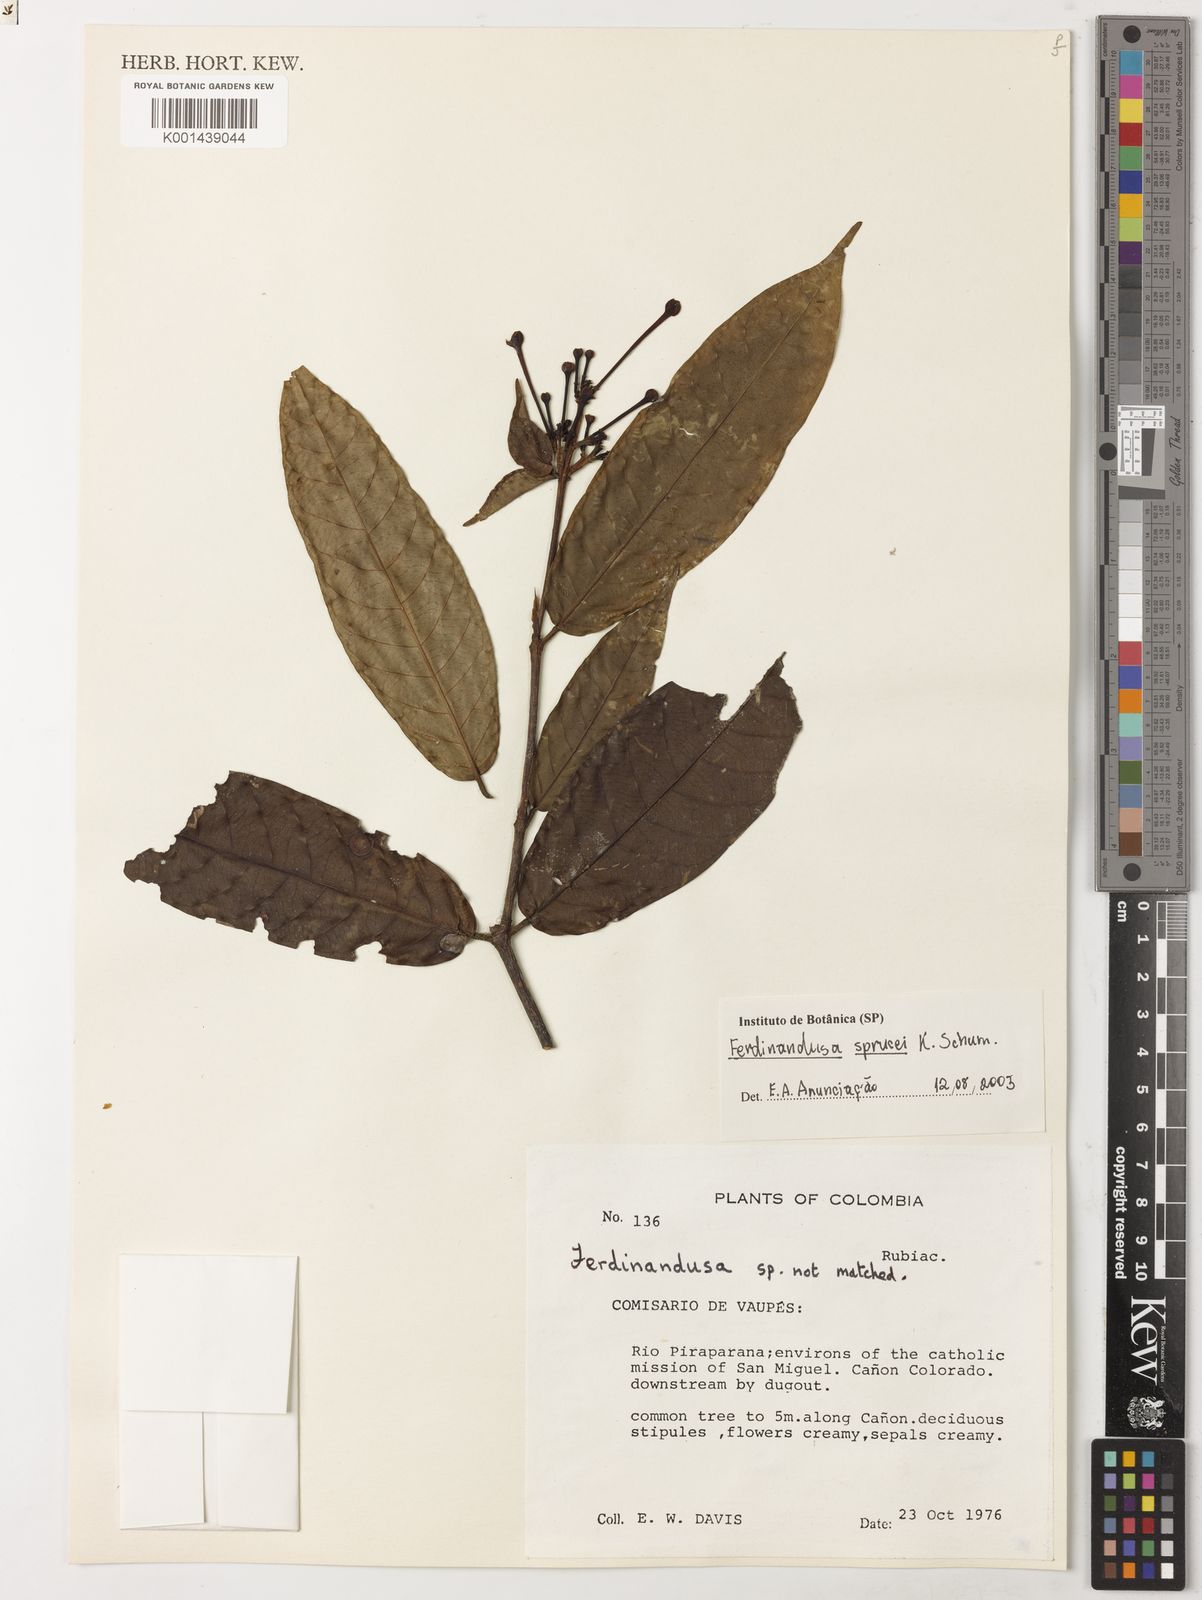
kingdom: Plantae
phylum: Tracheophyta
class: Magnoliopsida
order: Gentianales
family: Rubiaceae
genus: Ferdinandusa
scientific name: Ferdinandusa sprucei
